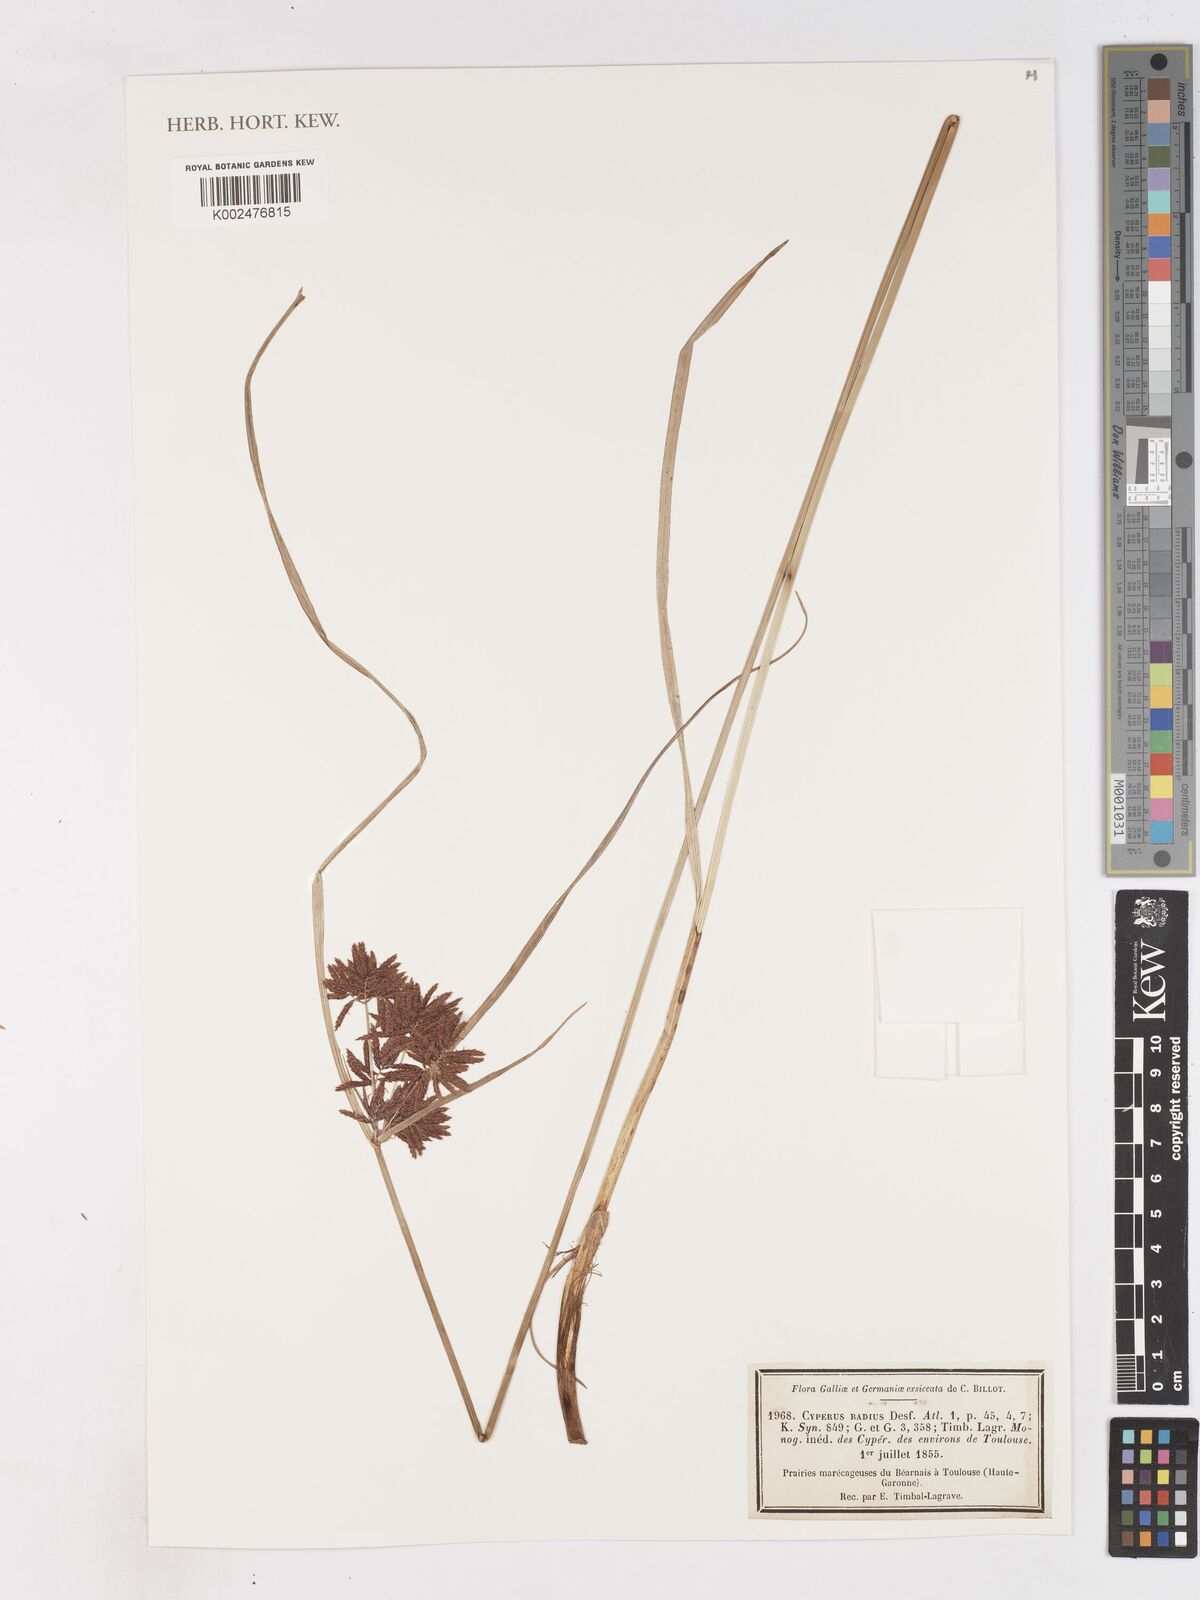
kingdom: Plantae
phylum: Tracheophyta
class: Liliopsida
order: Poales
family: Cyperaceae
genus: Cyperus
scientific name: Cyperus longus
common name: Galingale
